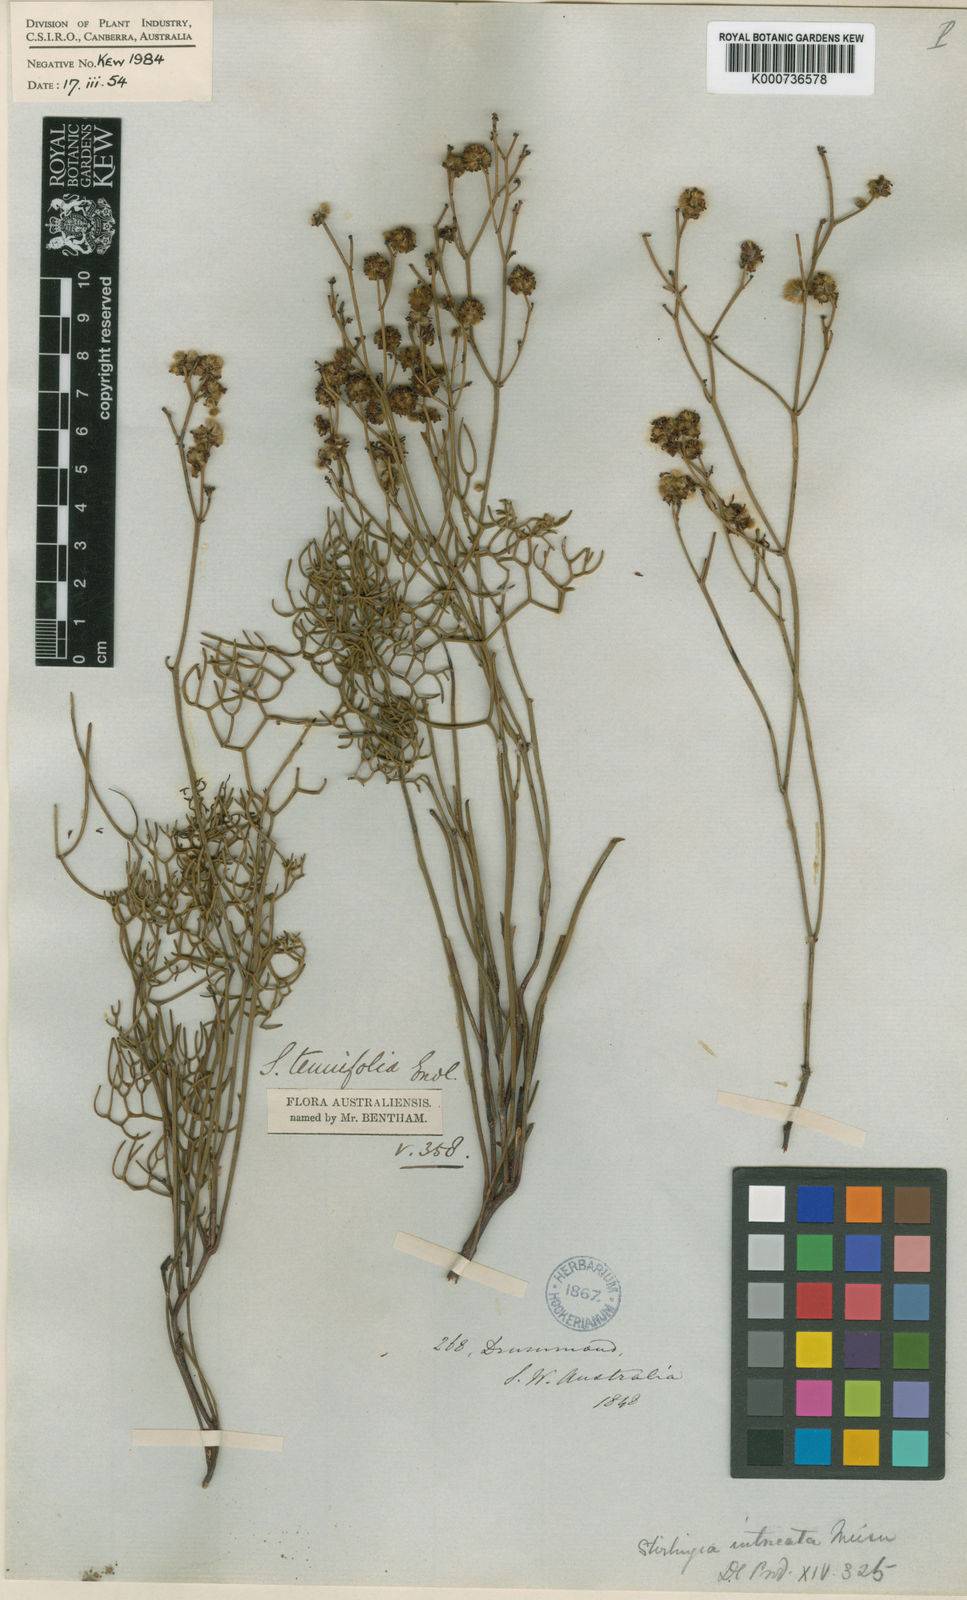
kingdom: Plantae
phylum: Tracheophyta
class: Magnoliopsida
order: Proteales
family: Proteaceae
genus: Stirlingia
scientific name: Stirlingia anethifolia
